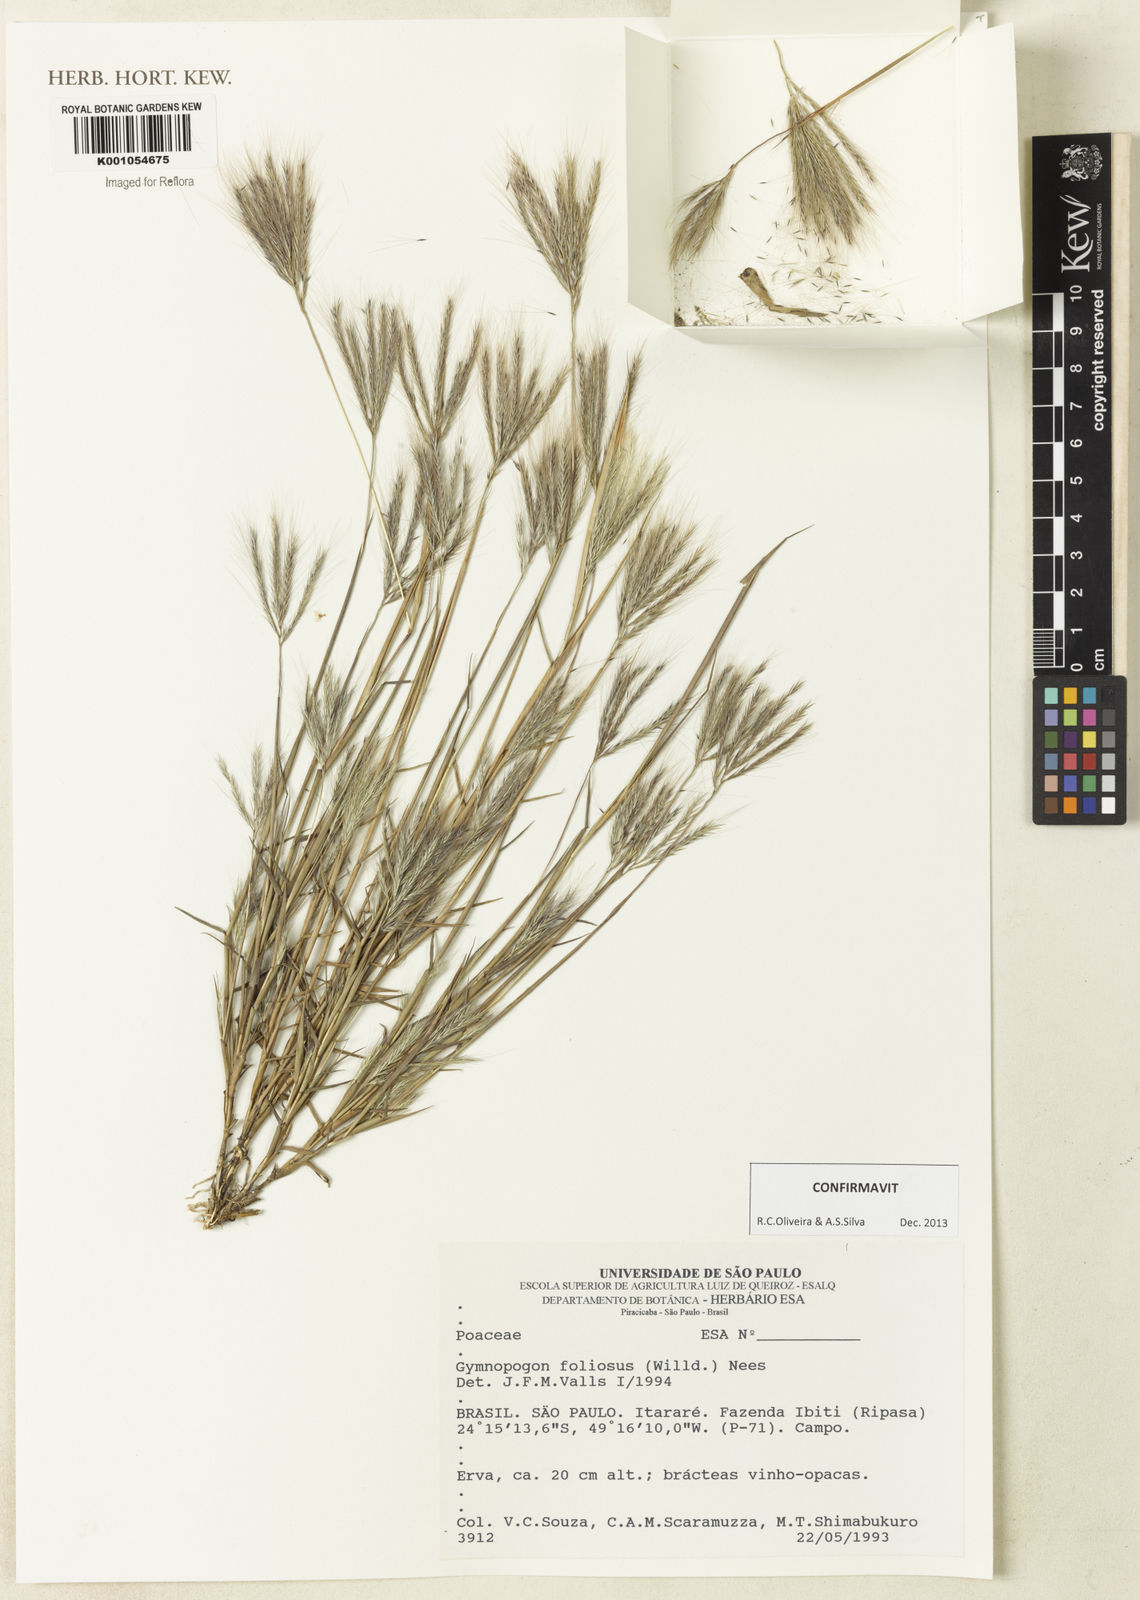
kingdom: Plantae
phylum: Tracheophyta
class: Liliopsida
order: Poales
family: Poaceae
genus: Gymnopogon
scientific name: Gymnopogon foliosus
